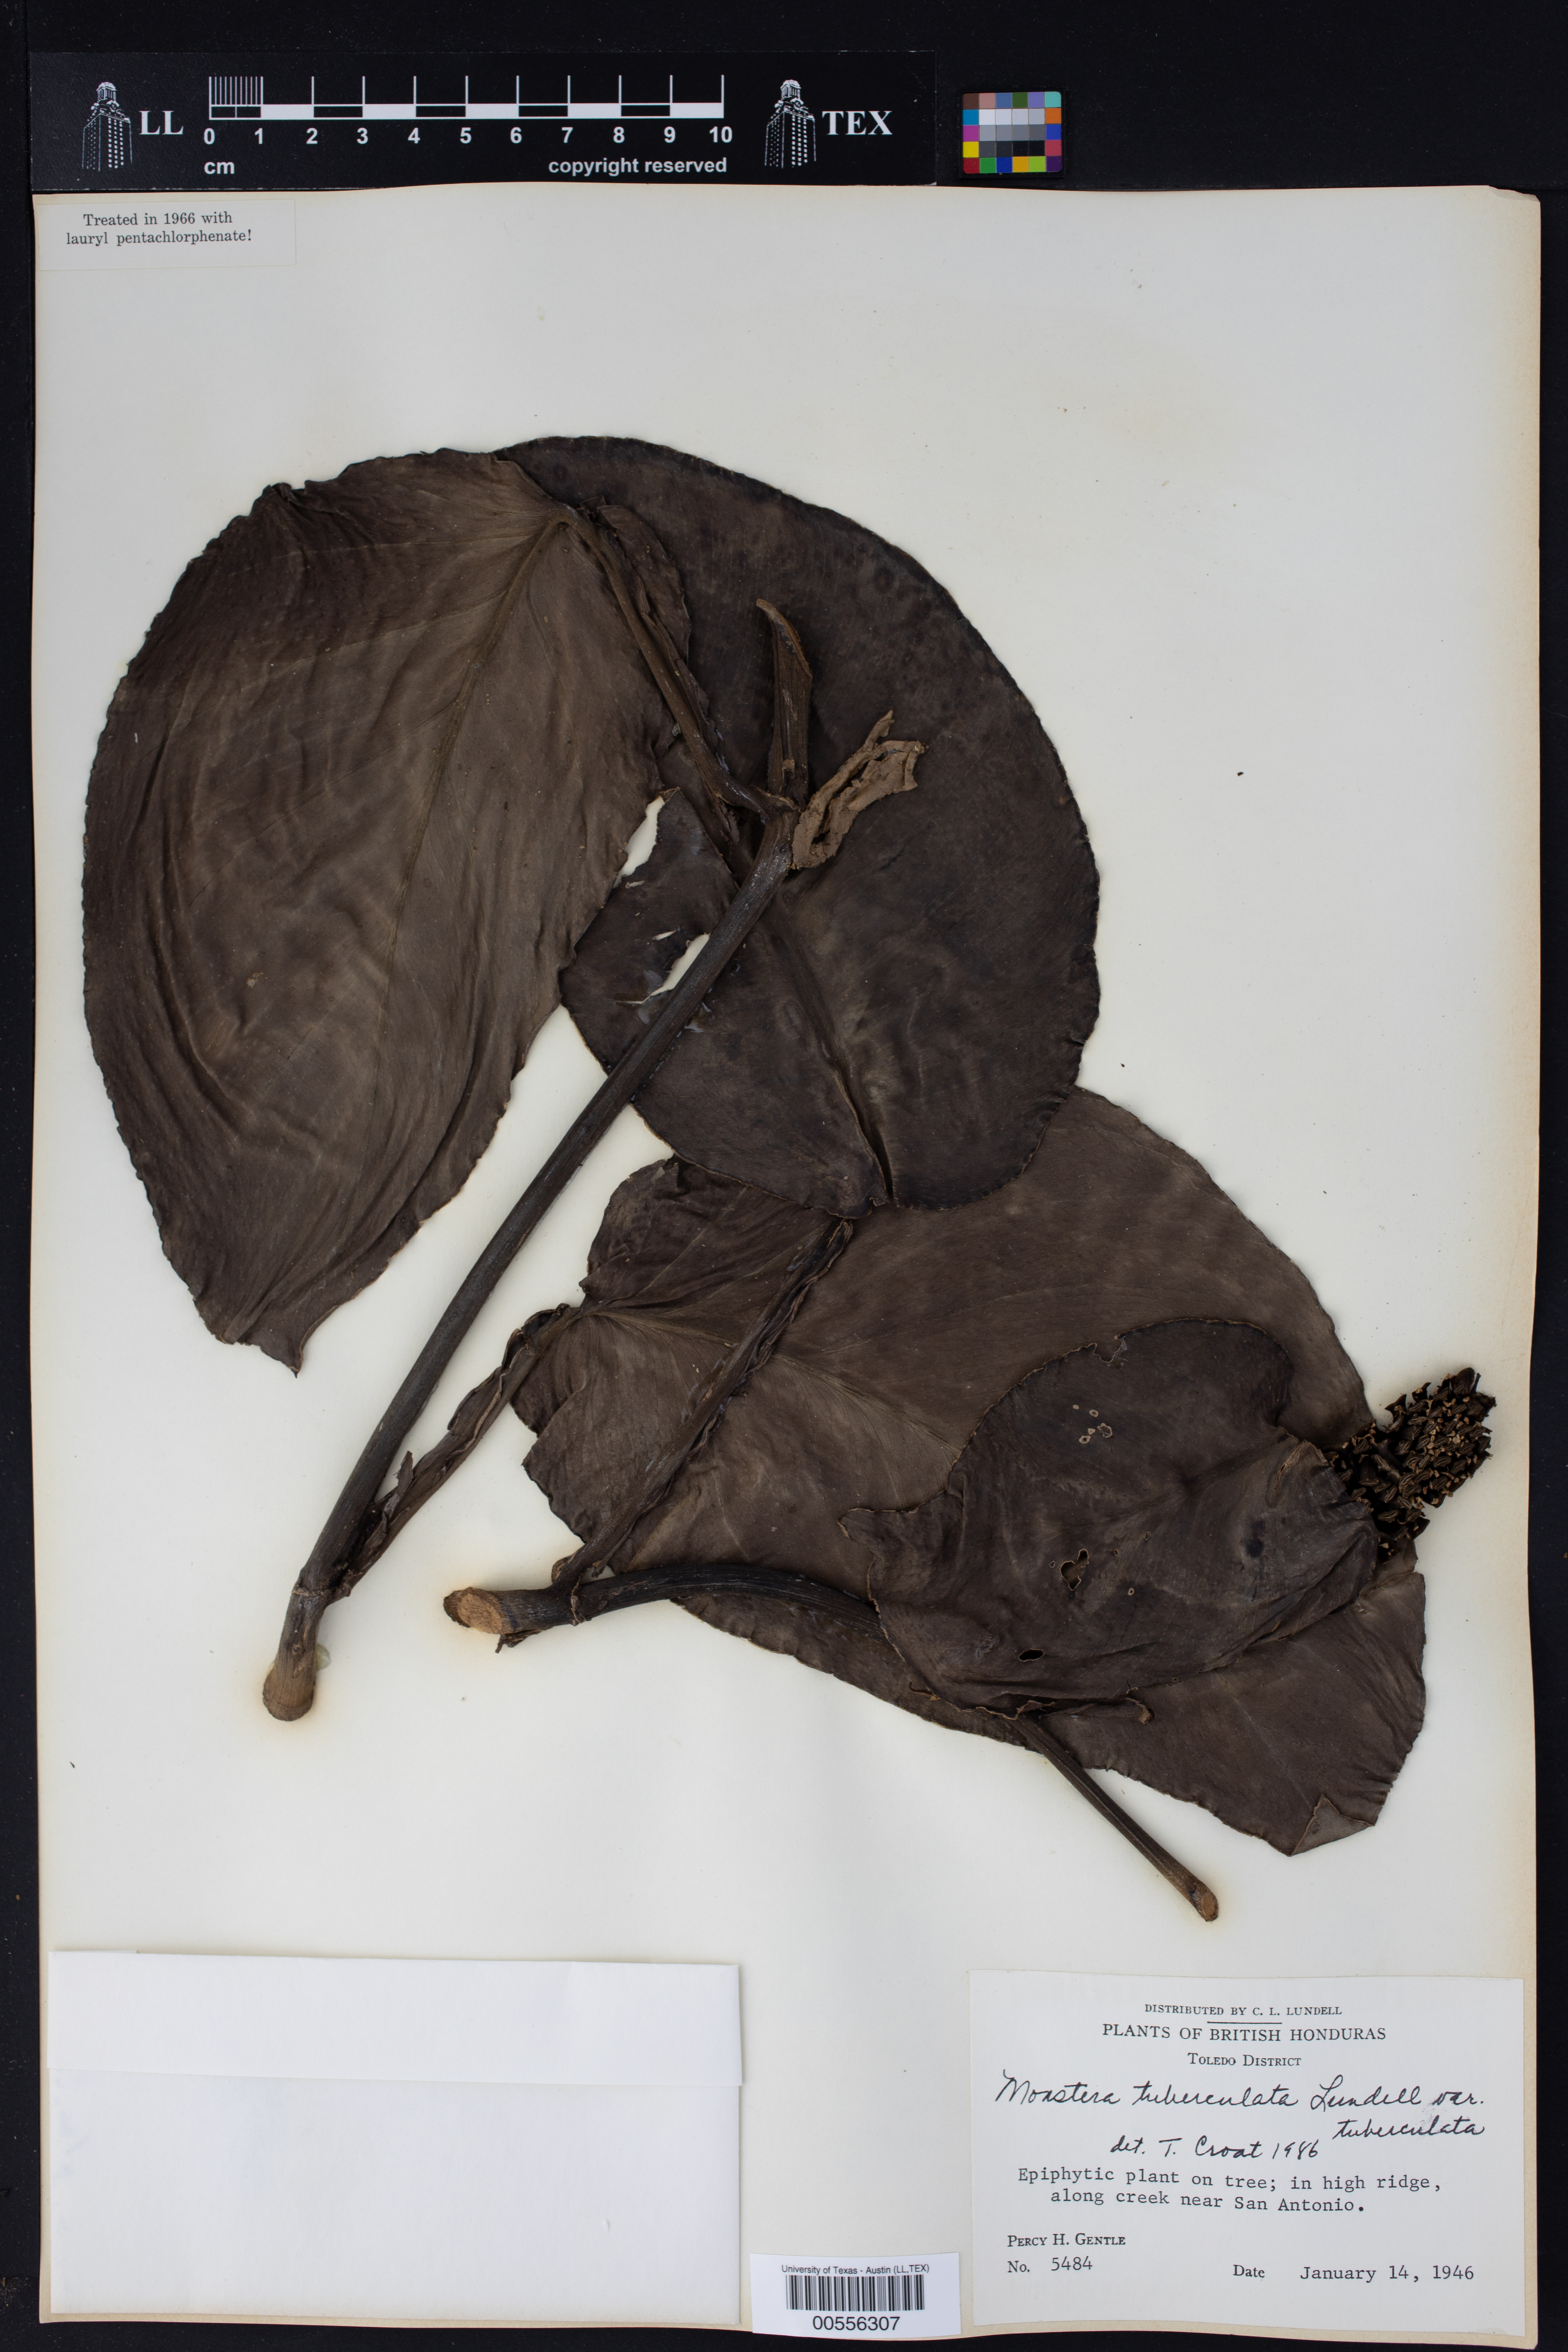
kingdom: Plantae
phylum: Tracheophyta
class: Liliopsida
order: Alismatales
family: Araceae
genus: Monstera
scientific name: Monstera tuberculata
